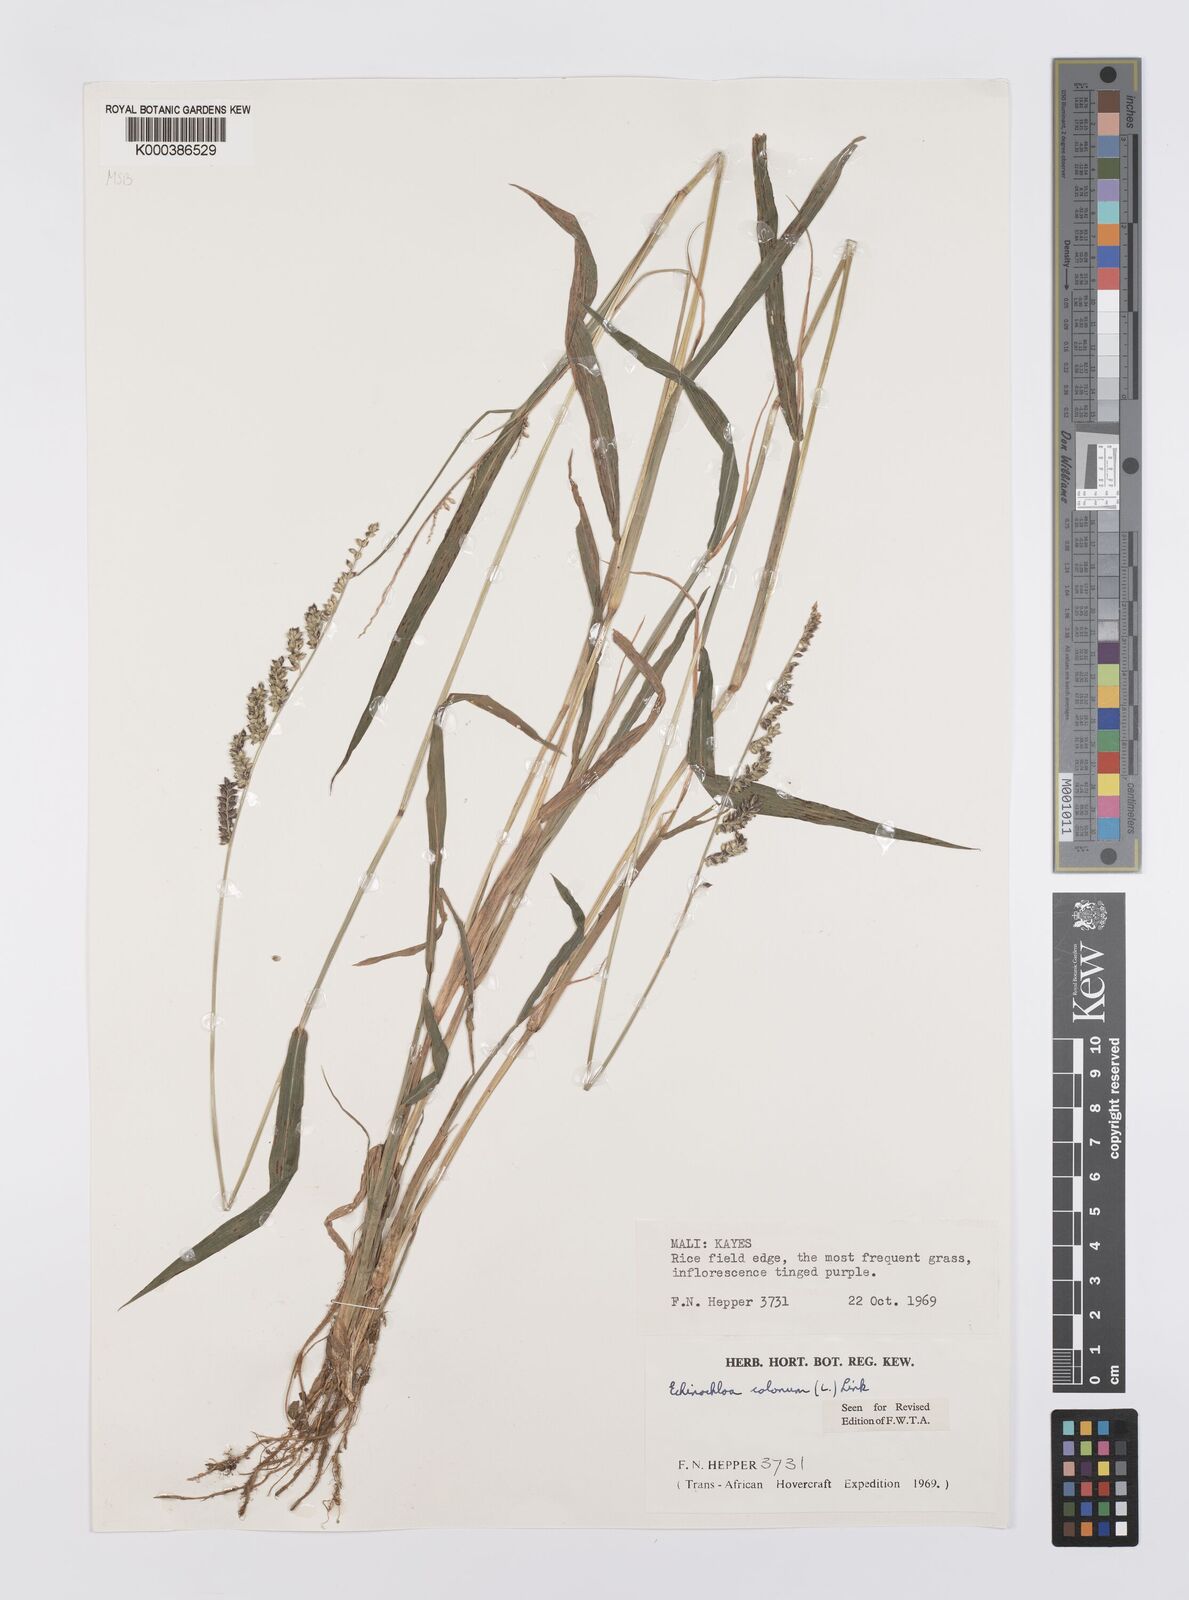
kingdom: Plantae
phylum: Tracheophyta
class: Liliopsida
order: Poales
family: Poaceae
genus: Echinochloa
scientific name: Echinochloa colonum
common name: Jungle rice
